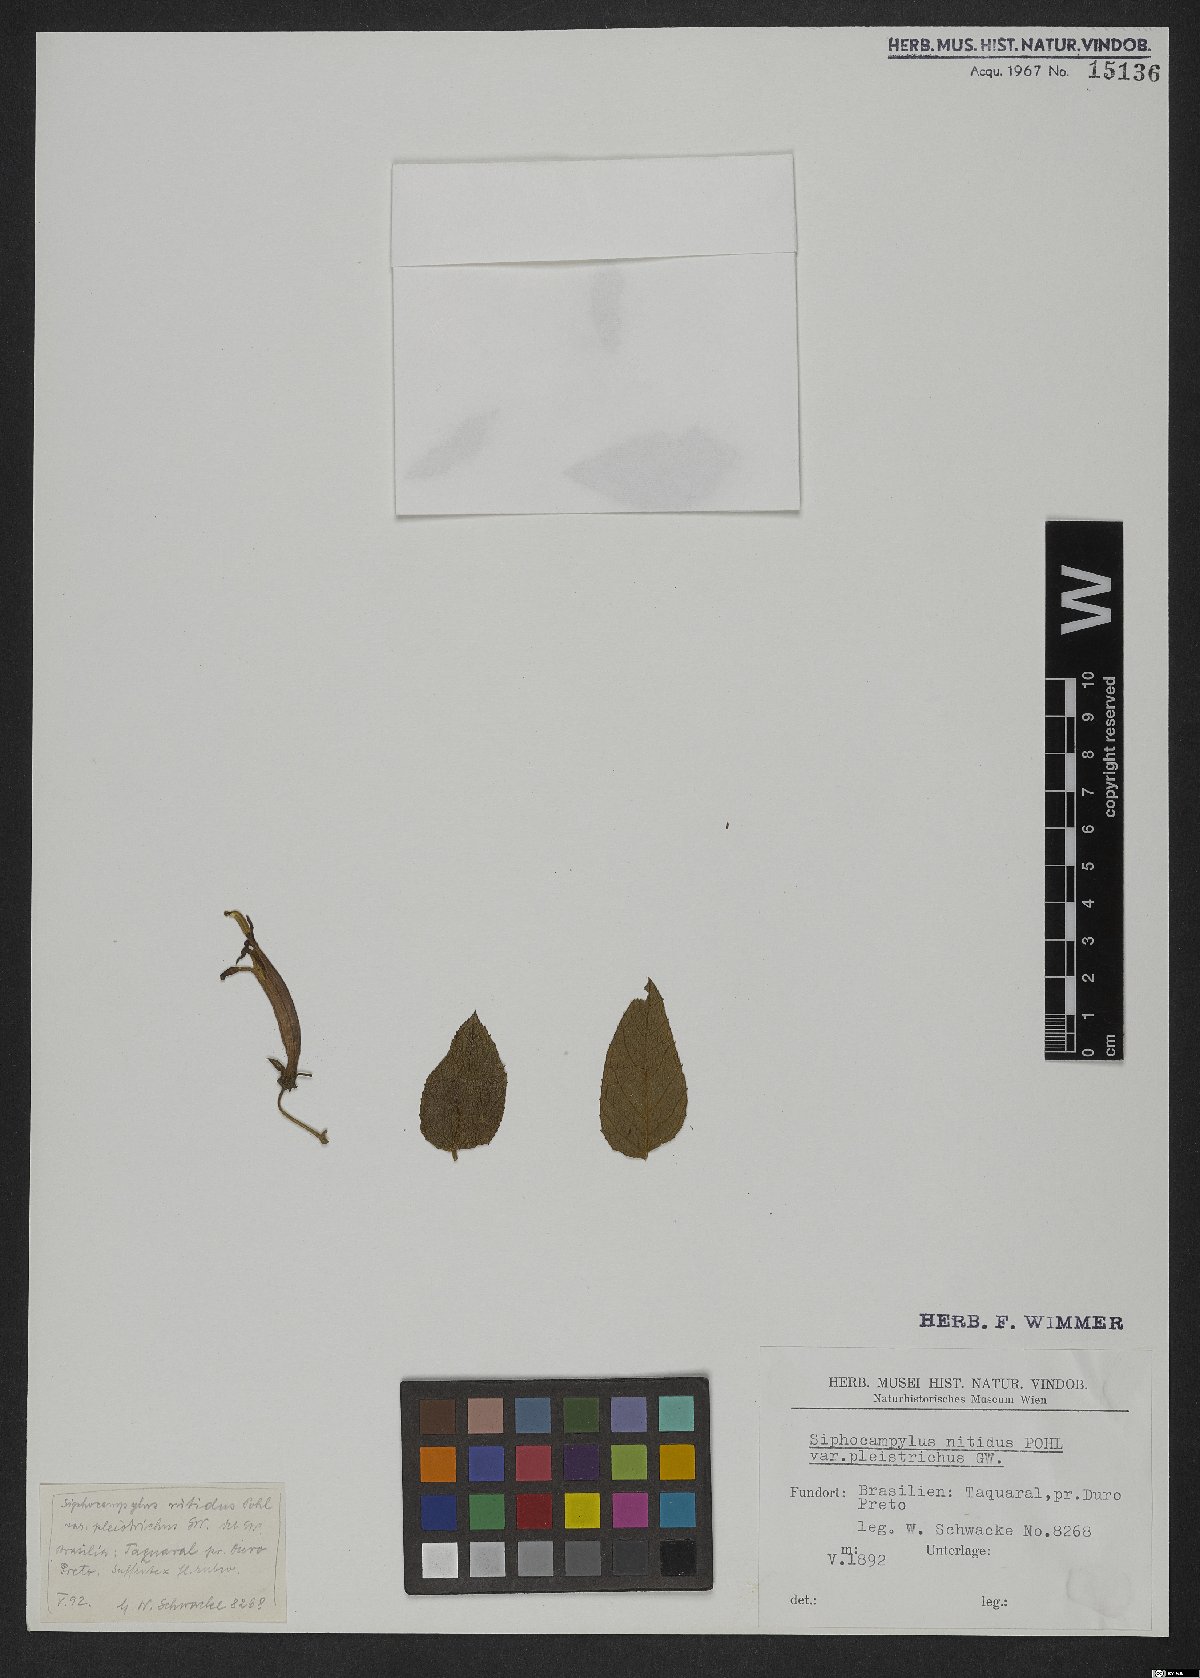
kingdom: Plantae
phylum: Tracheophyta
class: Magnoliopsida
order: Asterales
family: Campanulaceae
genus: Siphocampylus
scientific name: Siphocampylus nitidus
